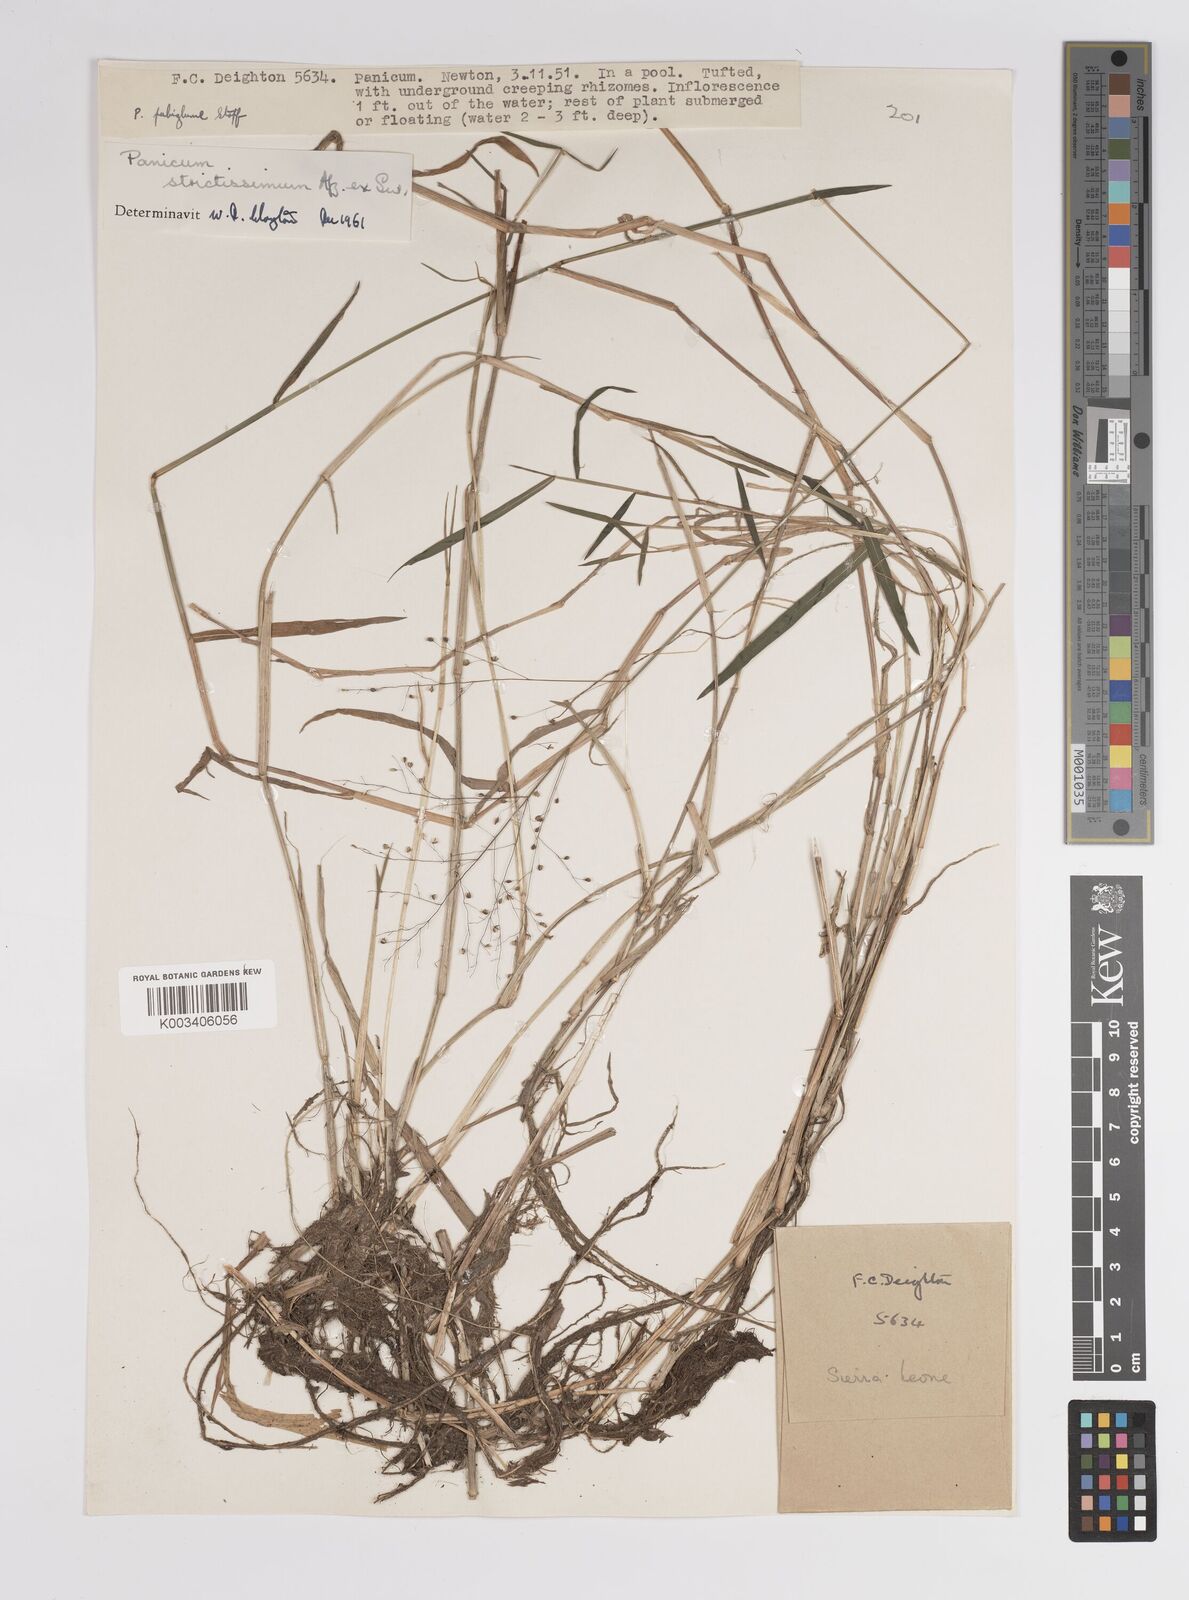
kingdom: Plantae
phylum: Tracheophyta
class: Liliopsida
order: Poales
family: Poaceae
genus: Trichanthecium
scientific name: Trichanthecium strictissimum
